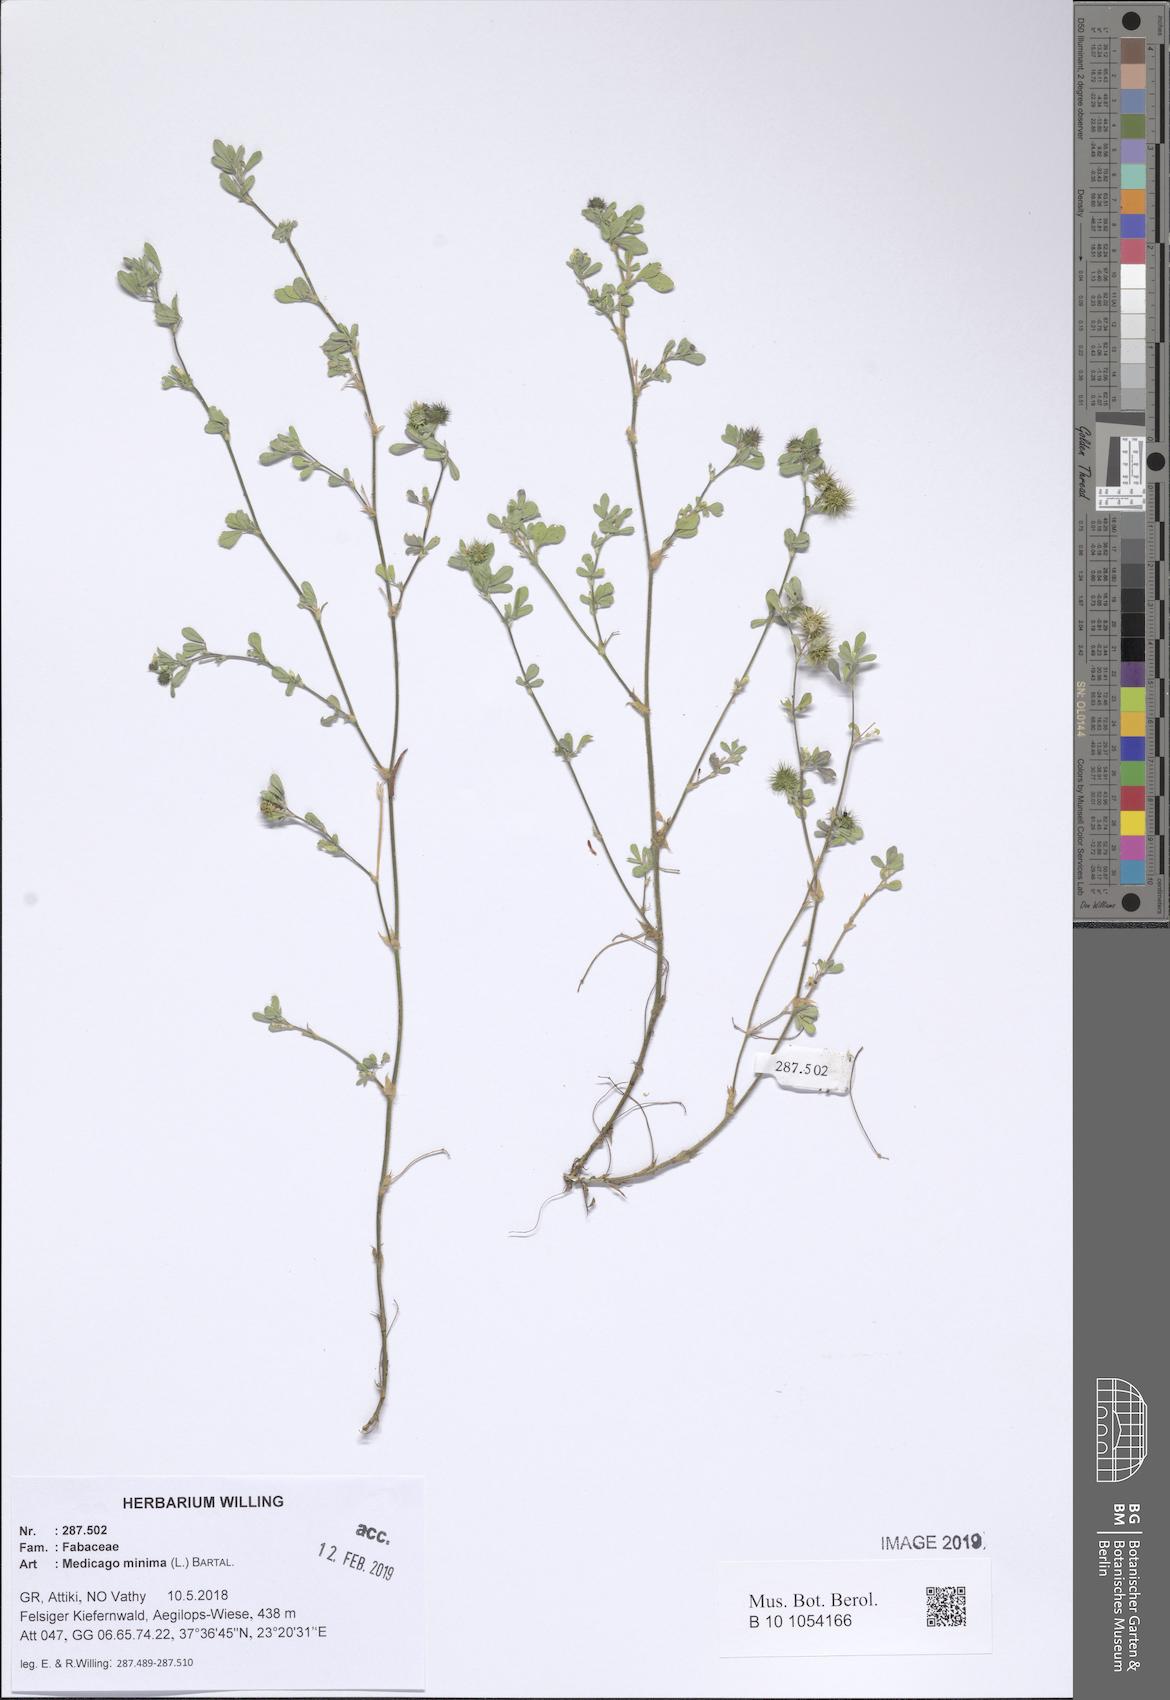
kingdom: Plantae
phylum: Tracheophyta
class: Magnoliopsida
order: Fabales
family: Fabaceae
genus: Medicago
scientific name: Medicago minima
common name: Little bur-clover
